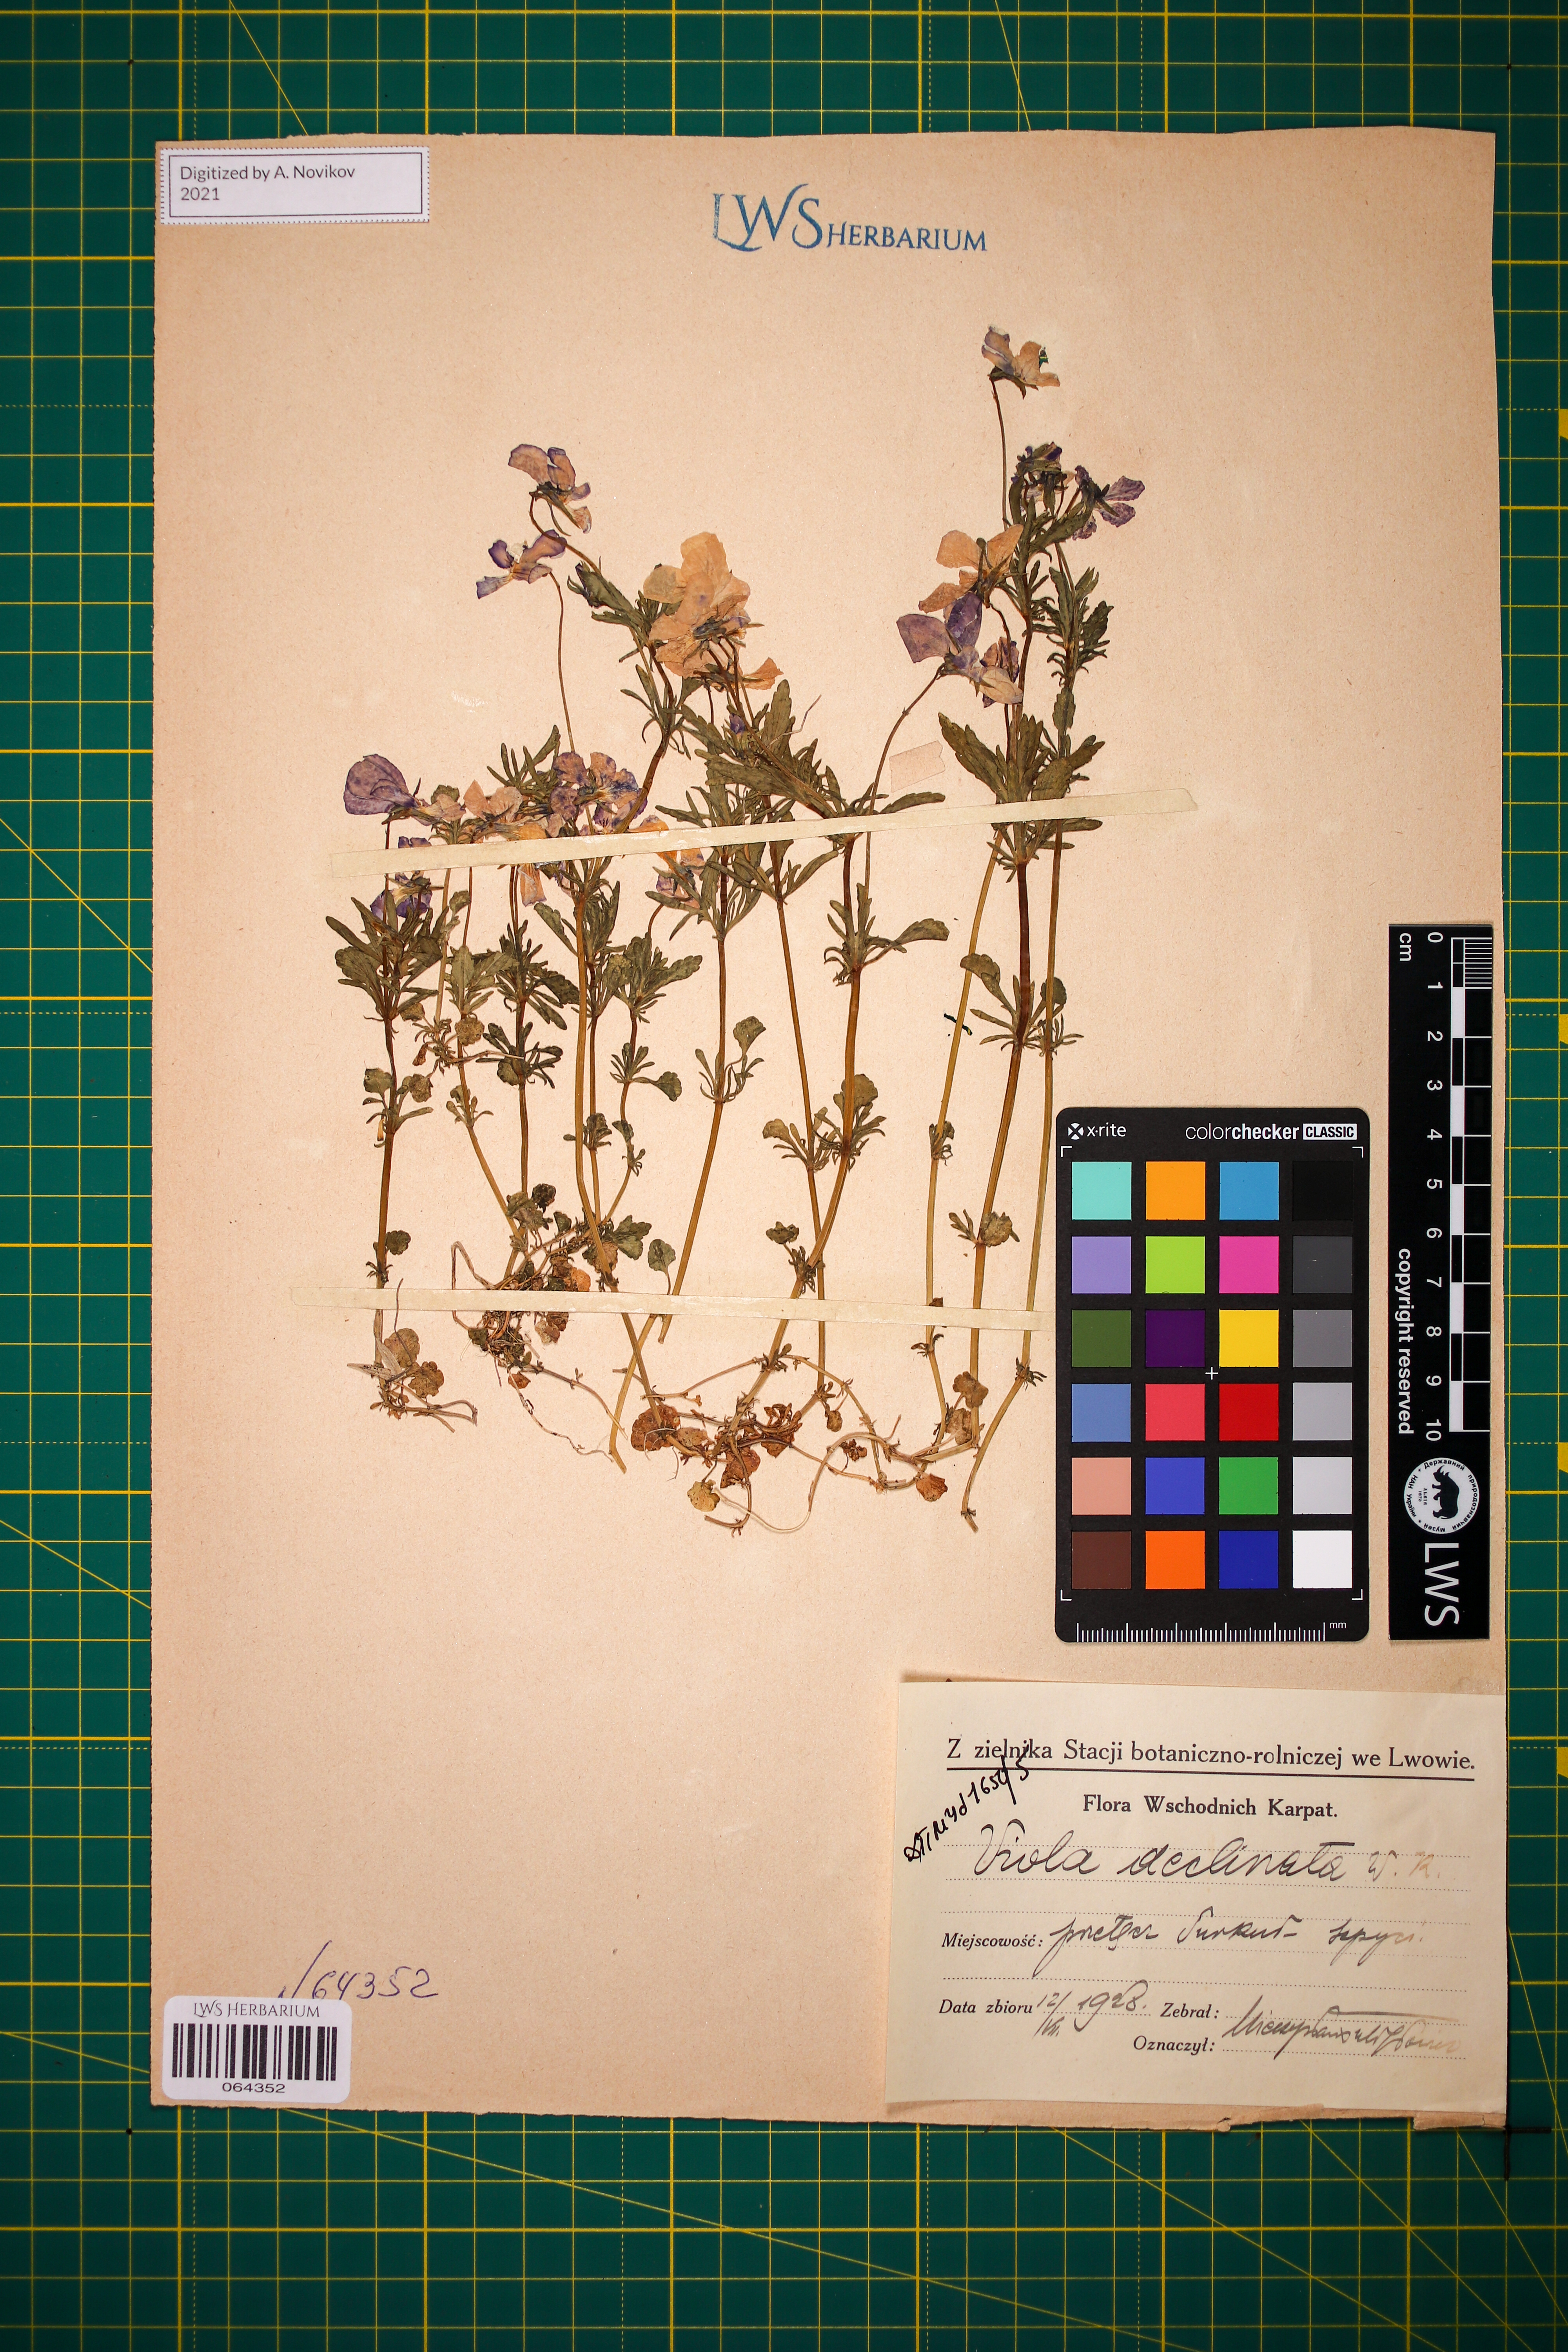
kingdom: Plantae
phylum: Tracheophyta
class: Magnoliopsida
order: Malpighiales
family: Violaceae
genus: Viola
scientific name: Viola declinata
